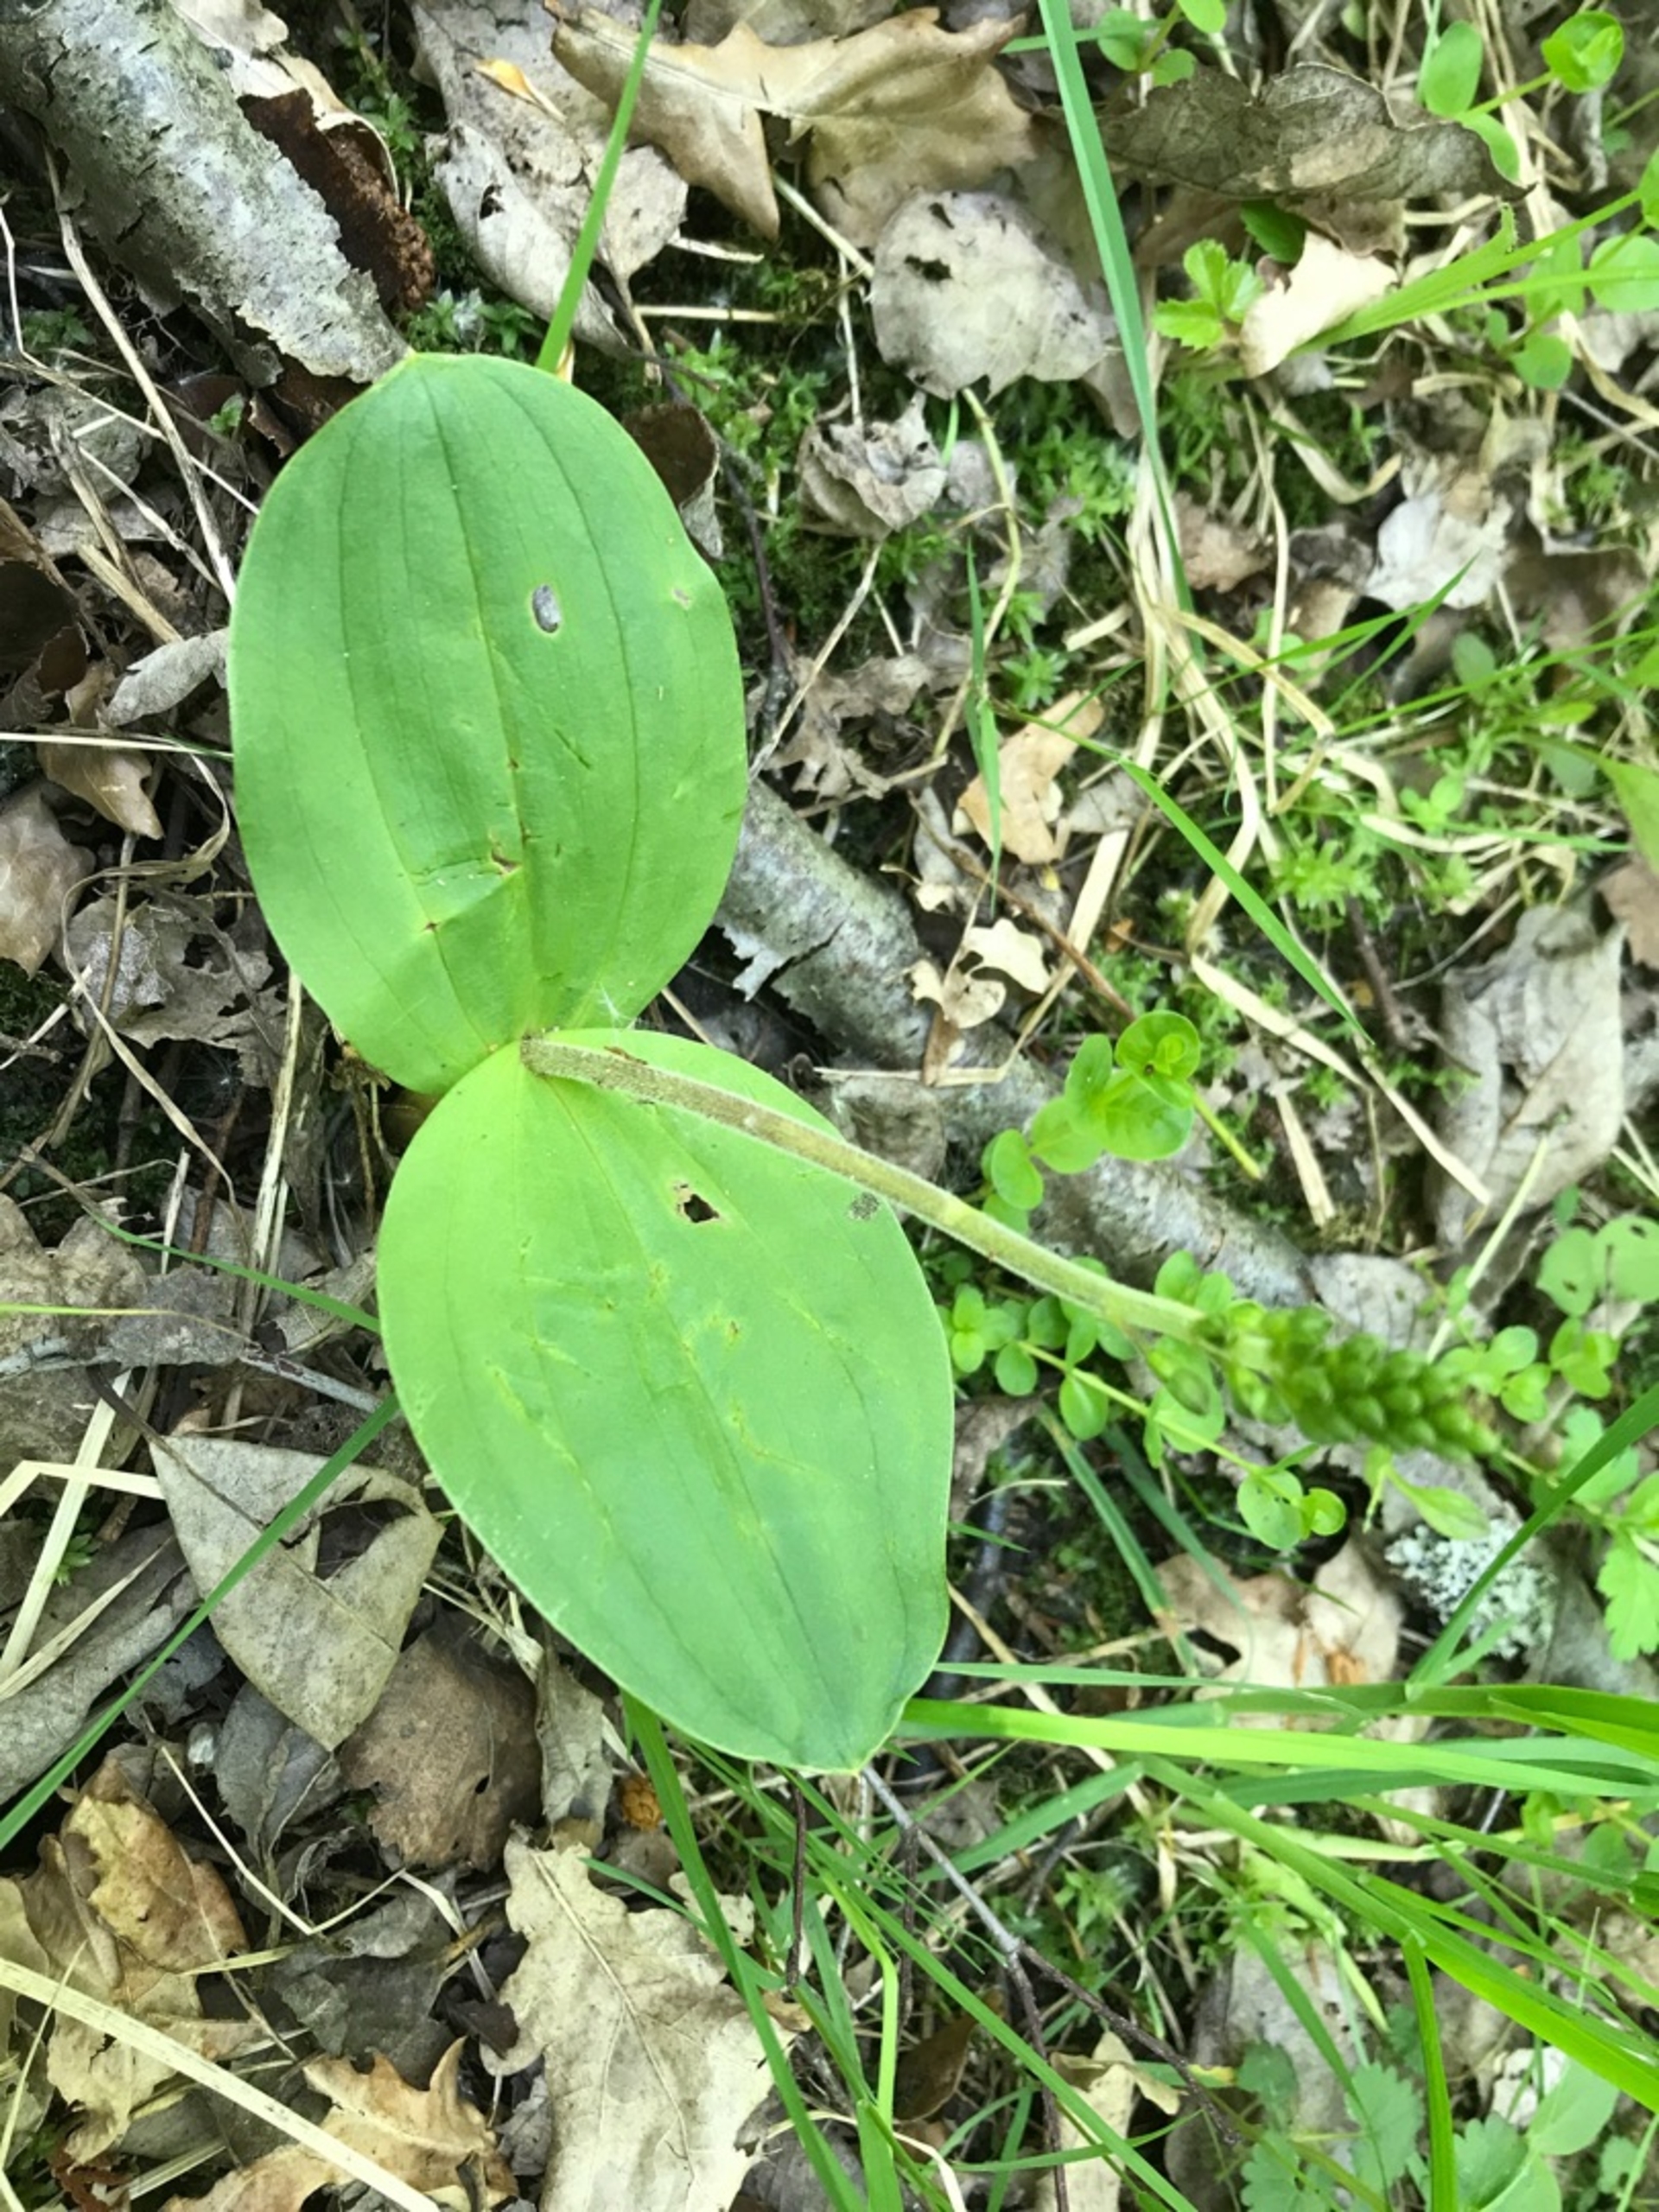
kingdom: Plantae
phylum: Tracheophyta
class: Liliopsida
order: Asparagales
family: Orchidaceae
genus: Neottia
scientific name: Neottia ovata
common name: Ægbladet fliglæbe
